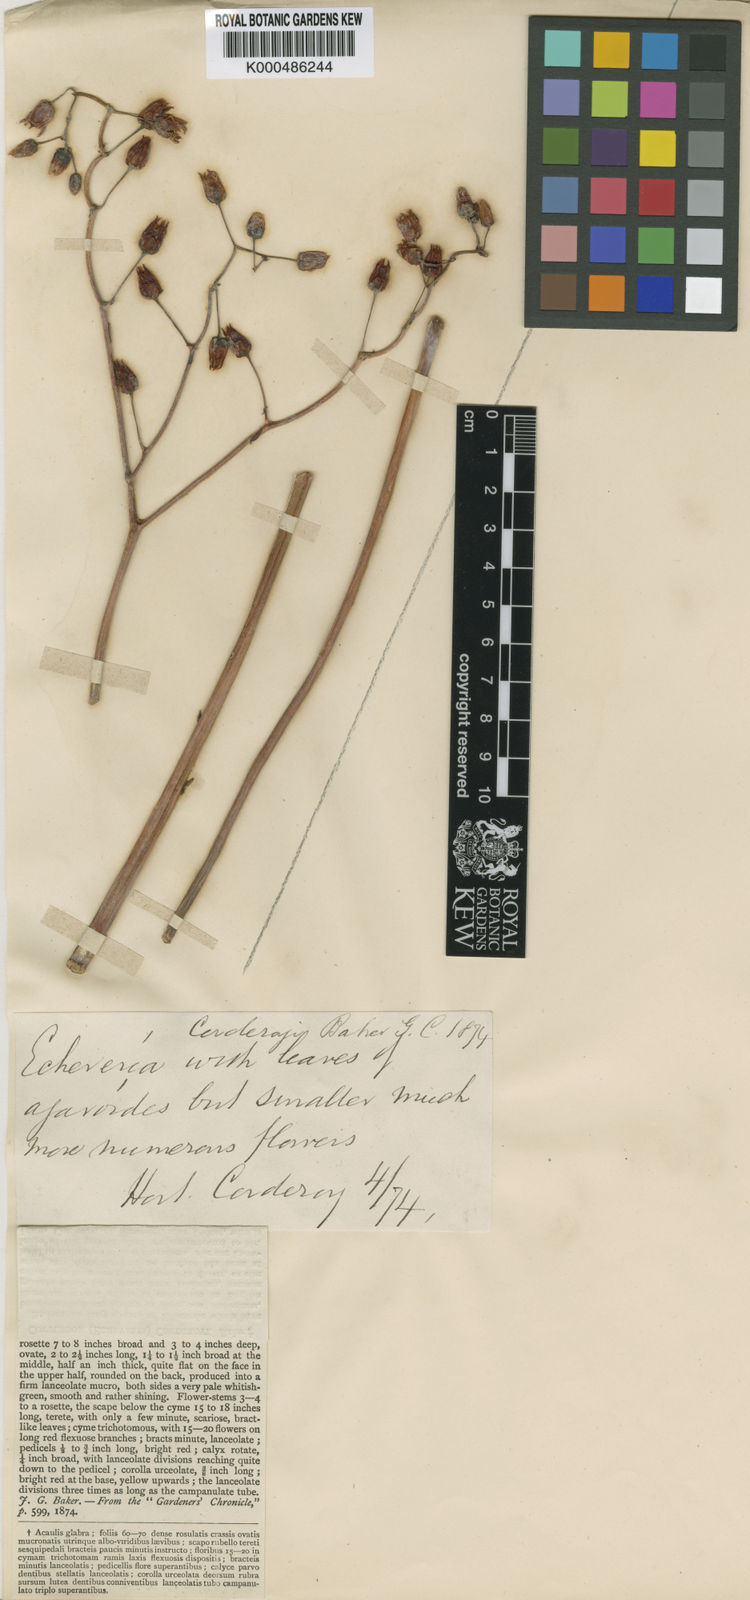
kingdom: Plantae
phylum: Tracheophyta
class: Magnoliopsida
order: Saxifragales
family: Crassulaceae
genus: Echeveria
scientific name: Echeveria agavoides
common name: Molded-wax
